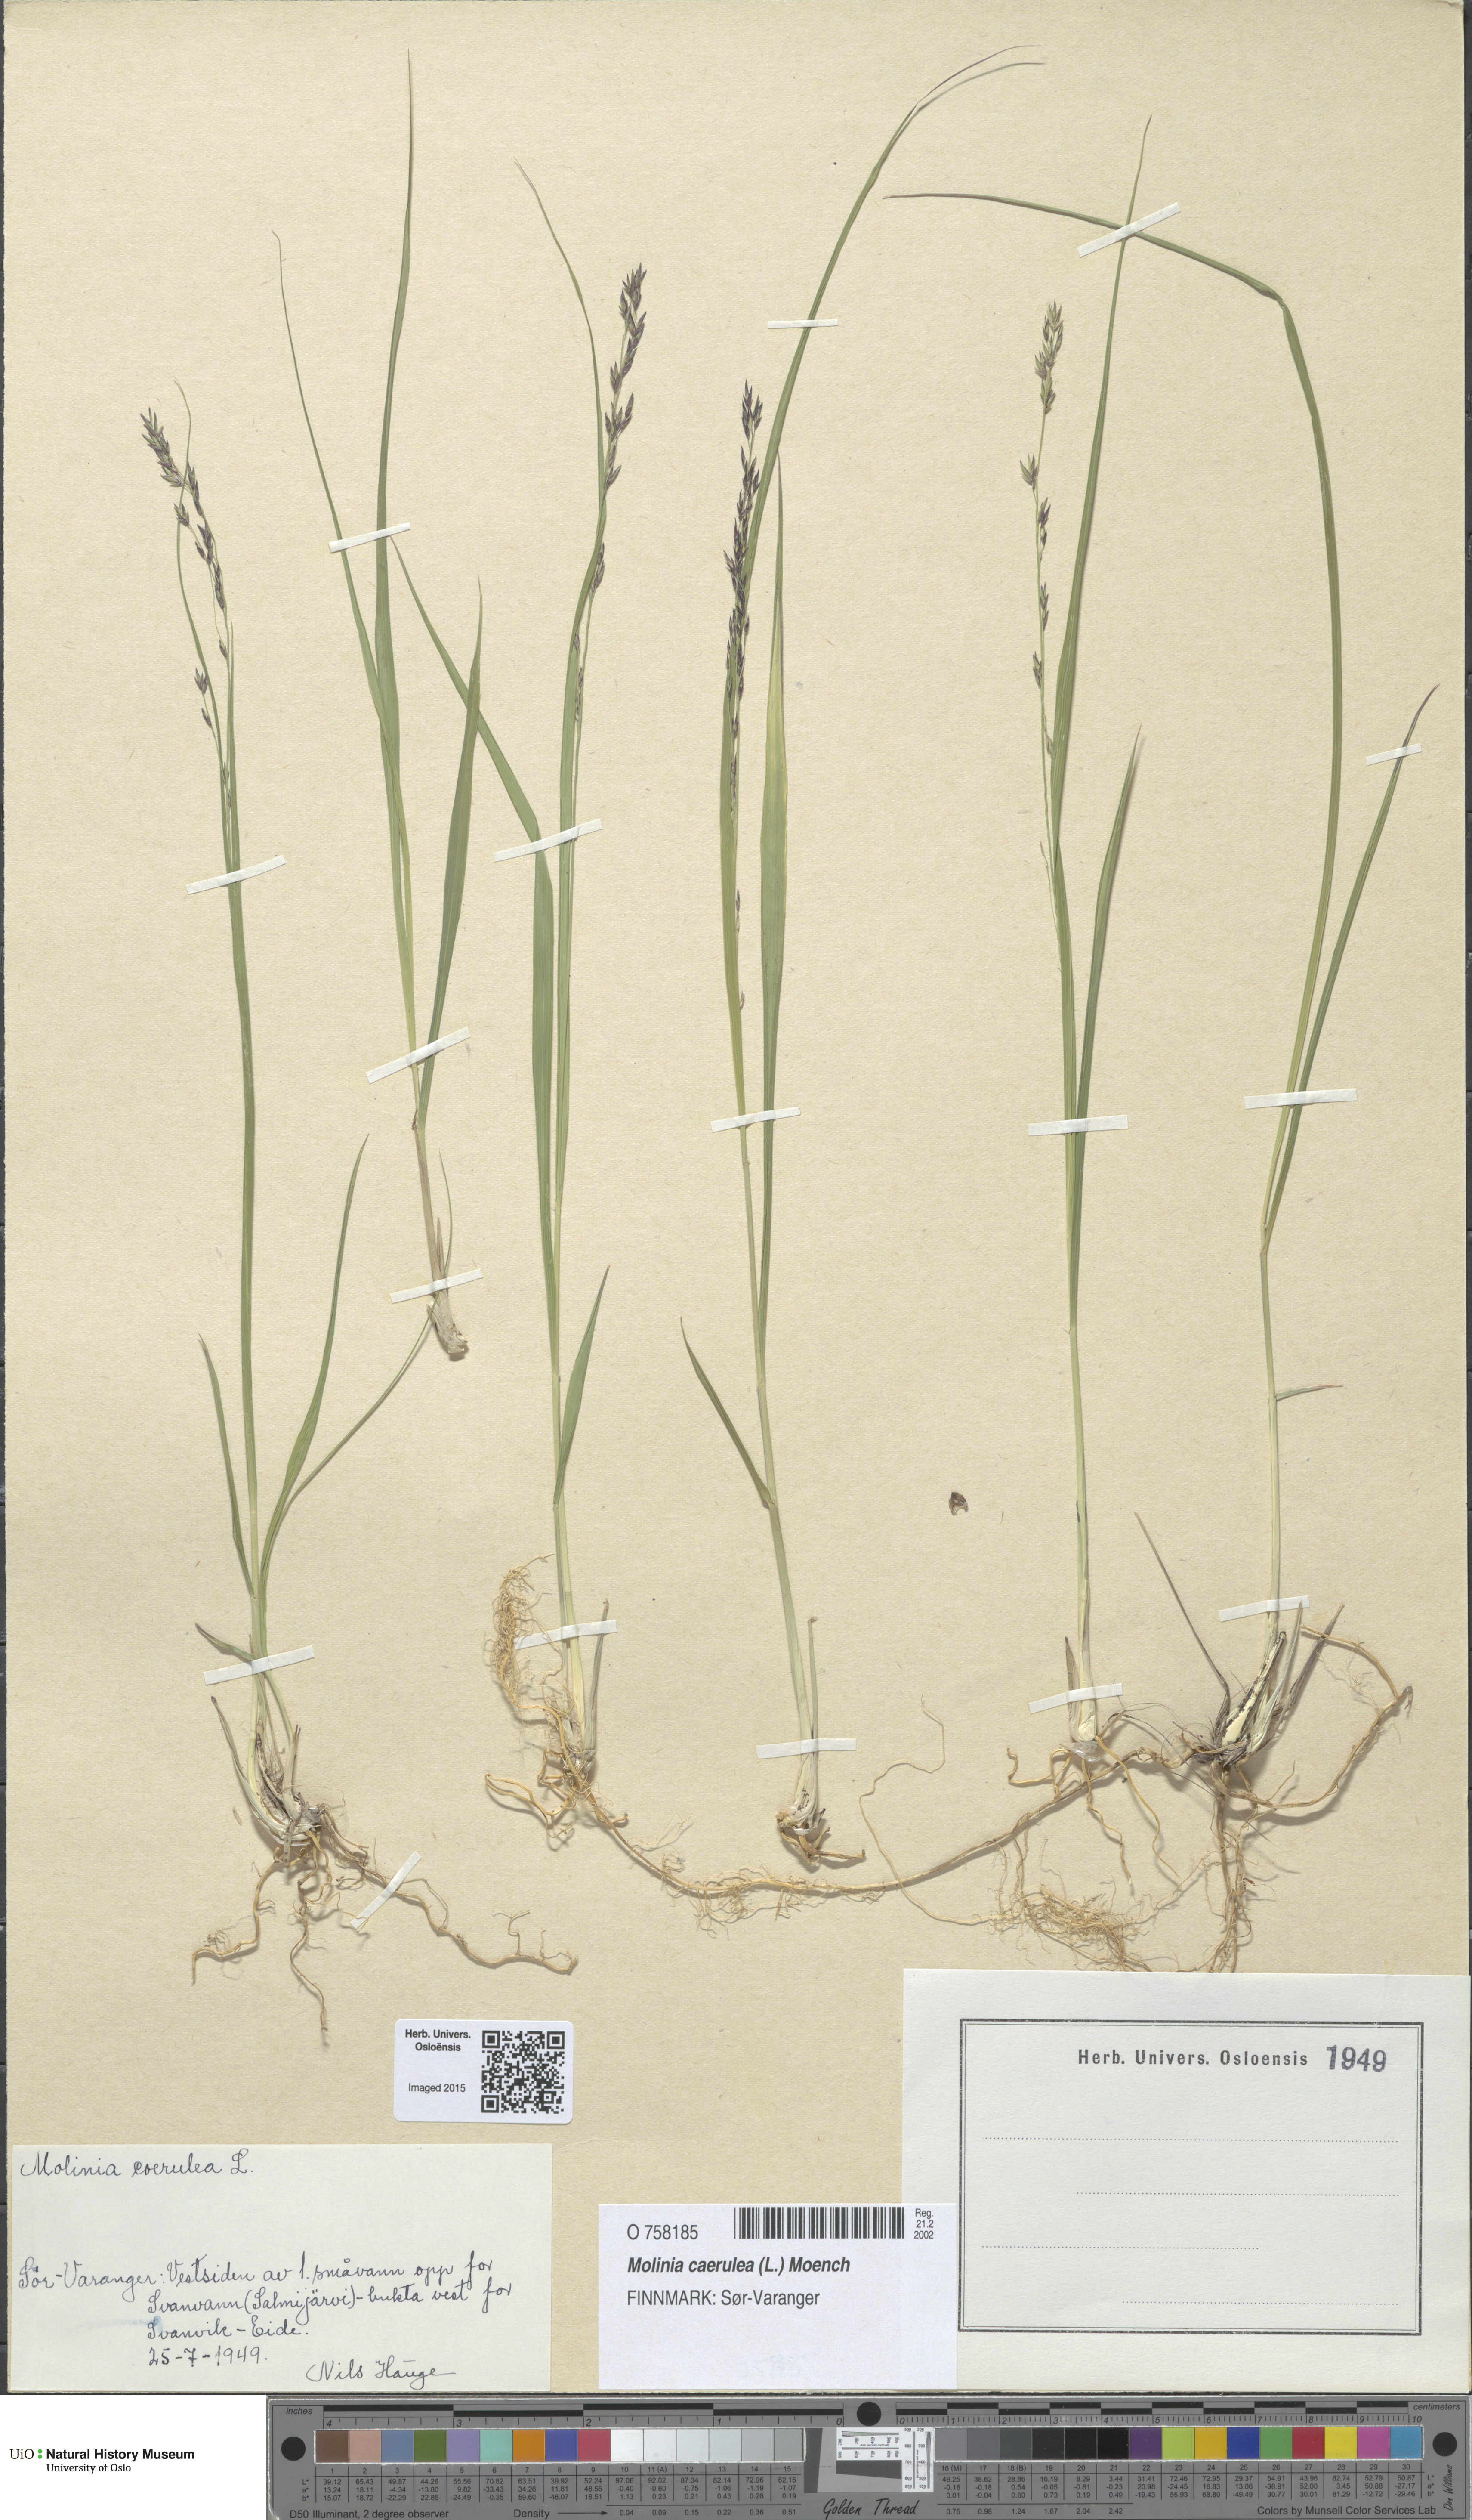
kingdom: Plantae
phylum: Tracheophyta
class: Liliopsida
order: Poales
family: Poaceae
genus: Molinia
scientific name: Molinia caerulea
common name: Purple moor-grass
